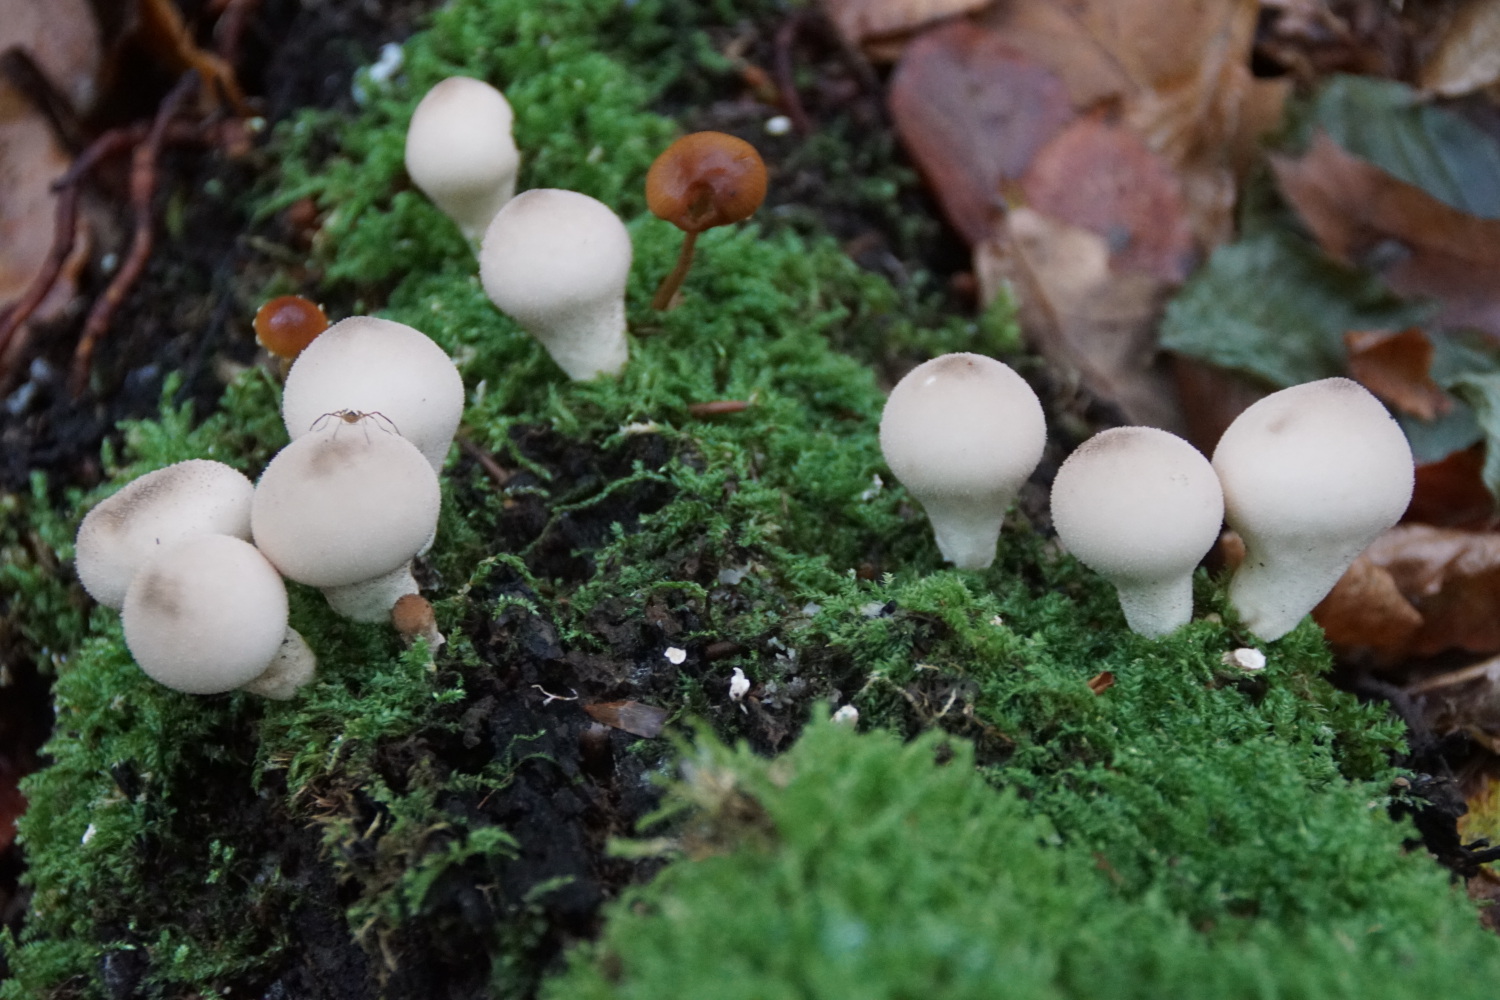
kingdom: Fungi
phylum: Basidiomycota
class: Agaricomycetes
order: Agaricales
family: Lycoperdaceae
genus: Apioperdon
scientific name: Apioperdon pyriforme
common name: pære-støvbold
